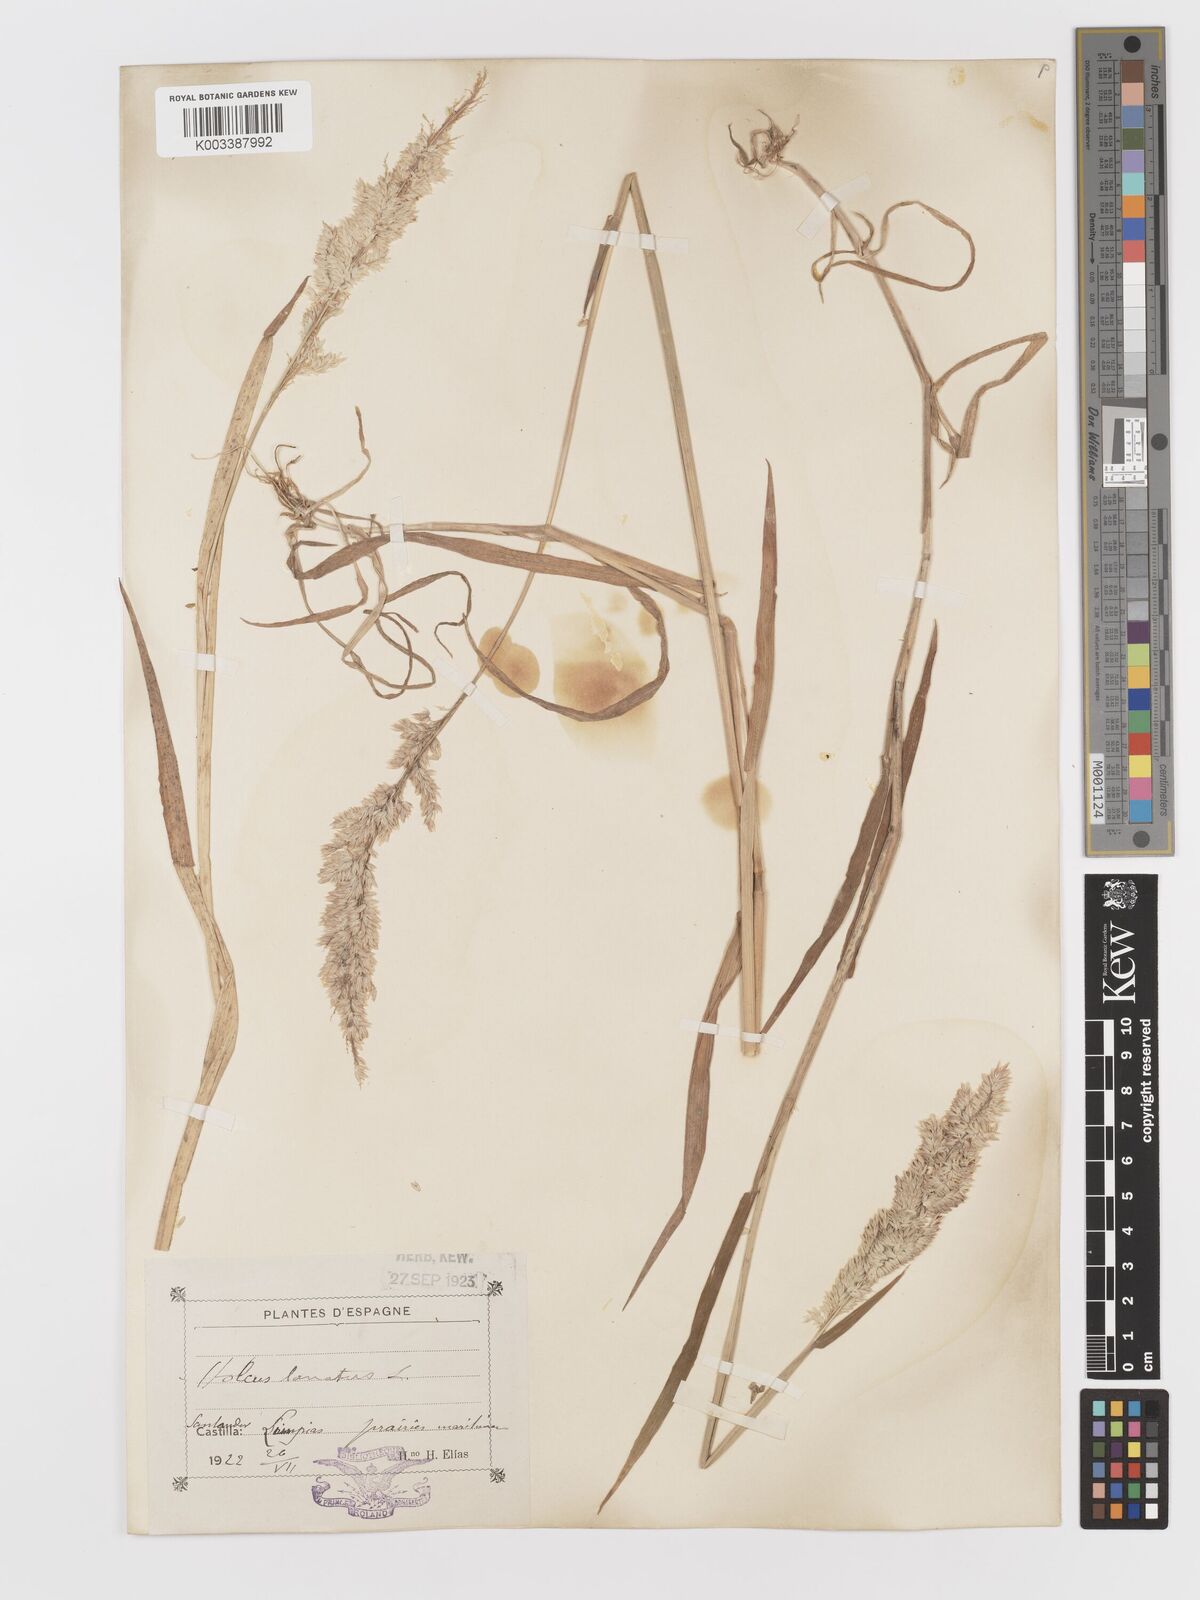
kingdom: Plantae
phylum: Tracheophyta
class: Liliopsida
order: Poales
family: Poaceae
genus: Holcus
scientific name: Holcus lanatus
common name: Yorkshire-fog
